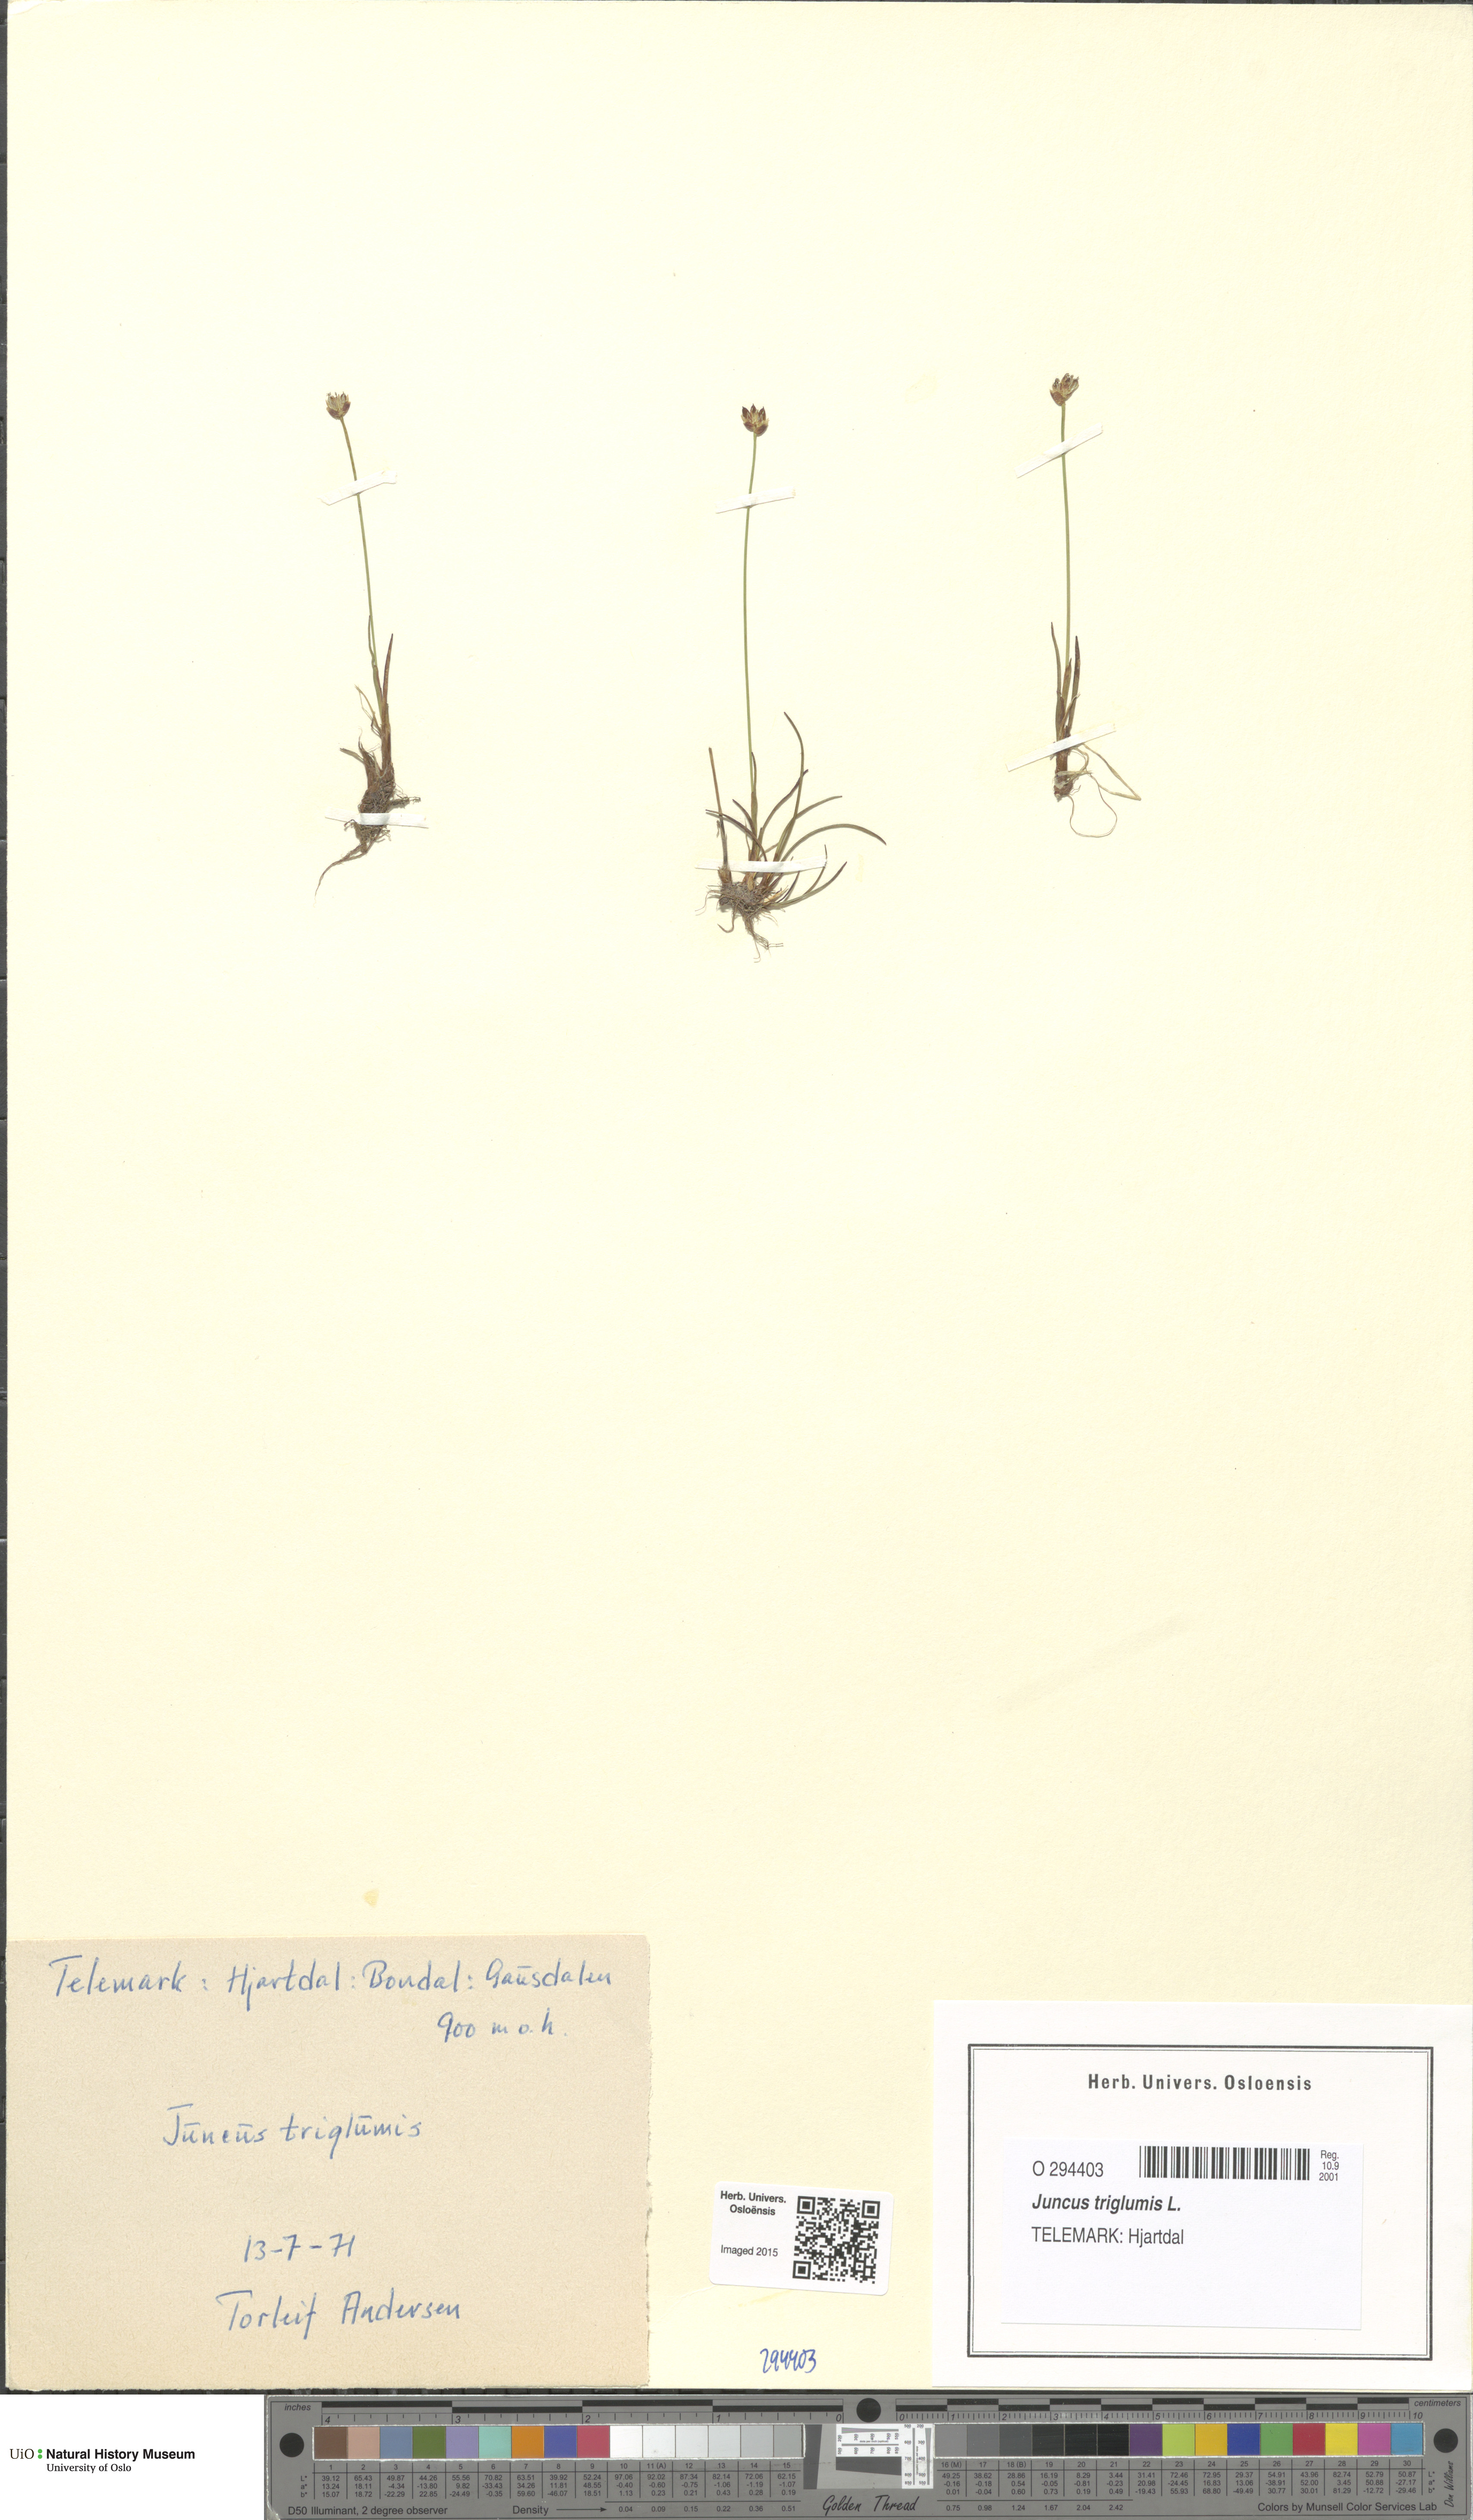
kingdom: Plantae
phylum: Tracheophyta
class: Liliopsida
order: Poales
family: Juncaceae
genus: Juncus
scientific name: Juncus triglumis
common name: Three-flowered rush
